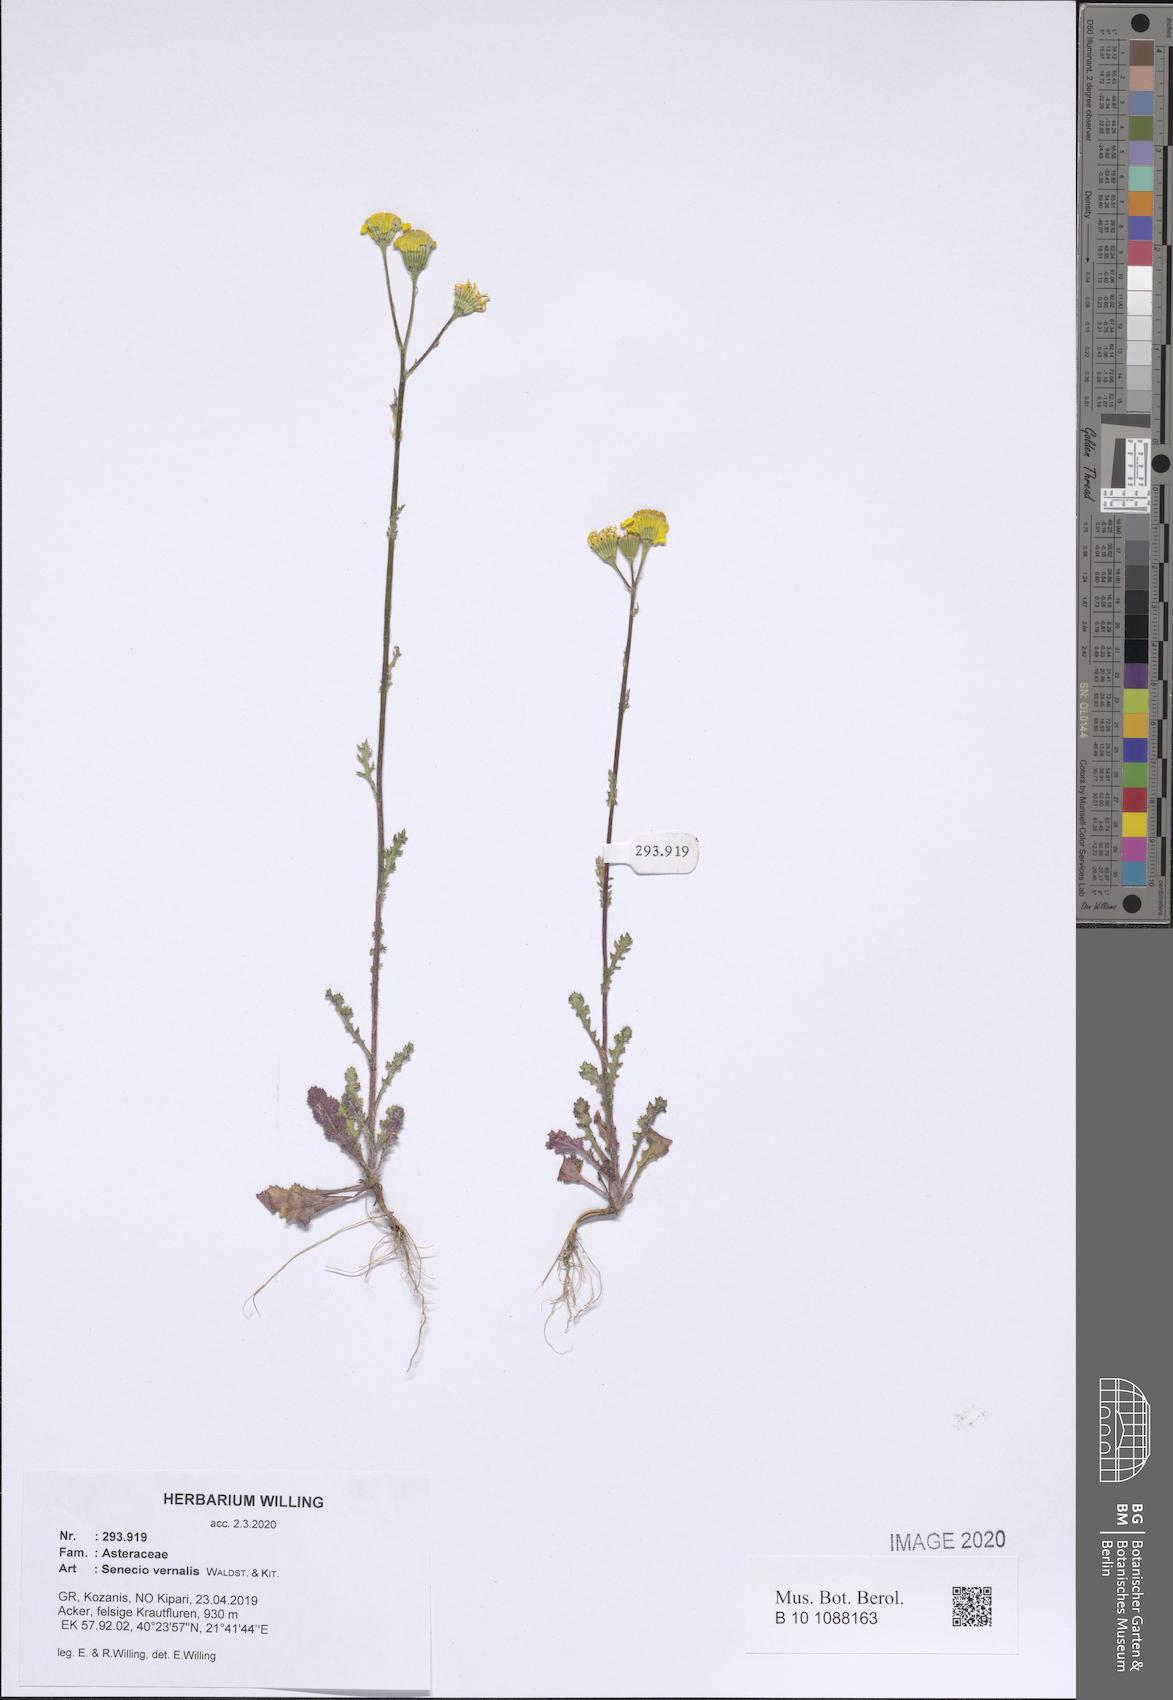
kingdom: Plantae
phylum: Tracheophyta
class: Magnoliopsida
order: Asterales
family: Asteraceae
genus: Senecio
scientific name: Senecio vernalis
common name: Eastern groundsel
